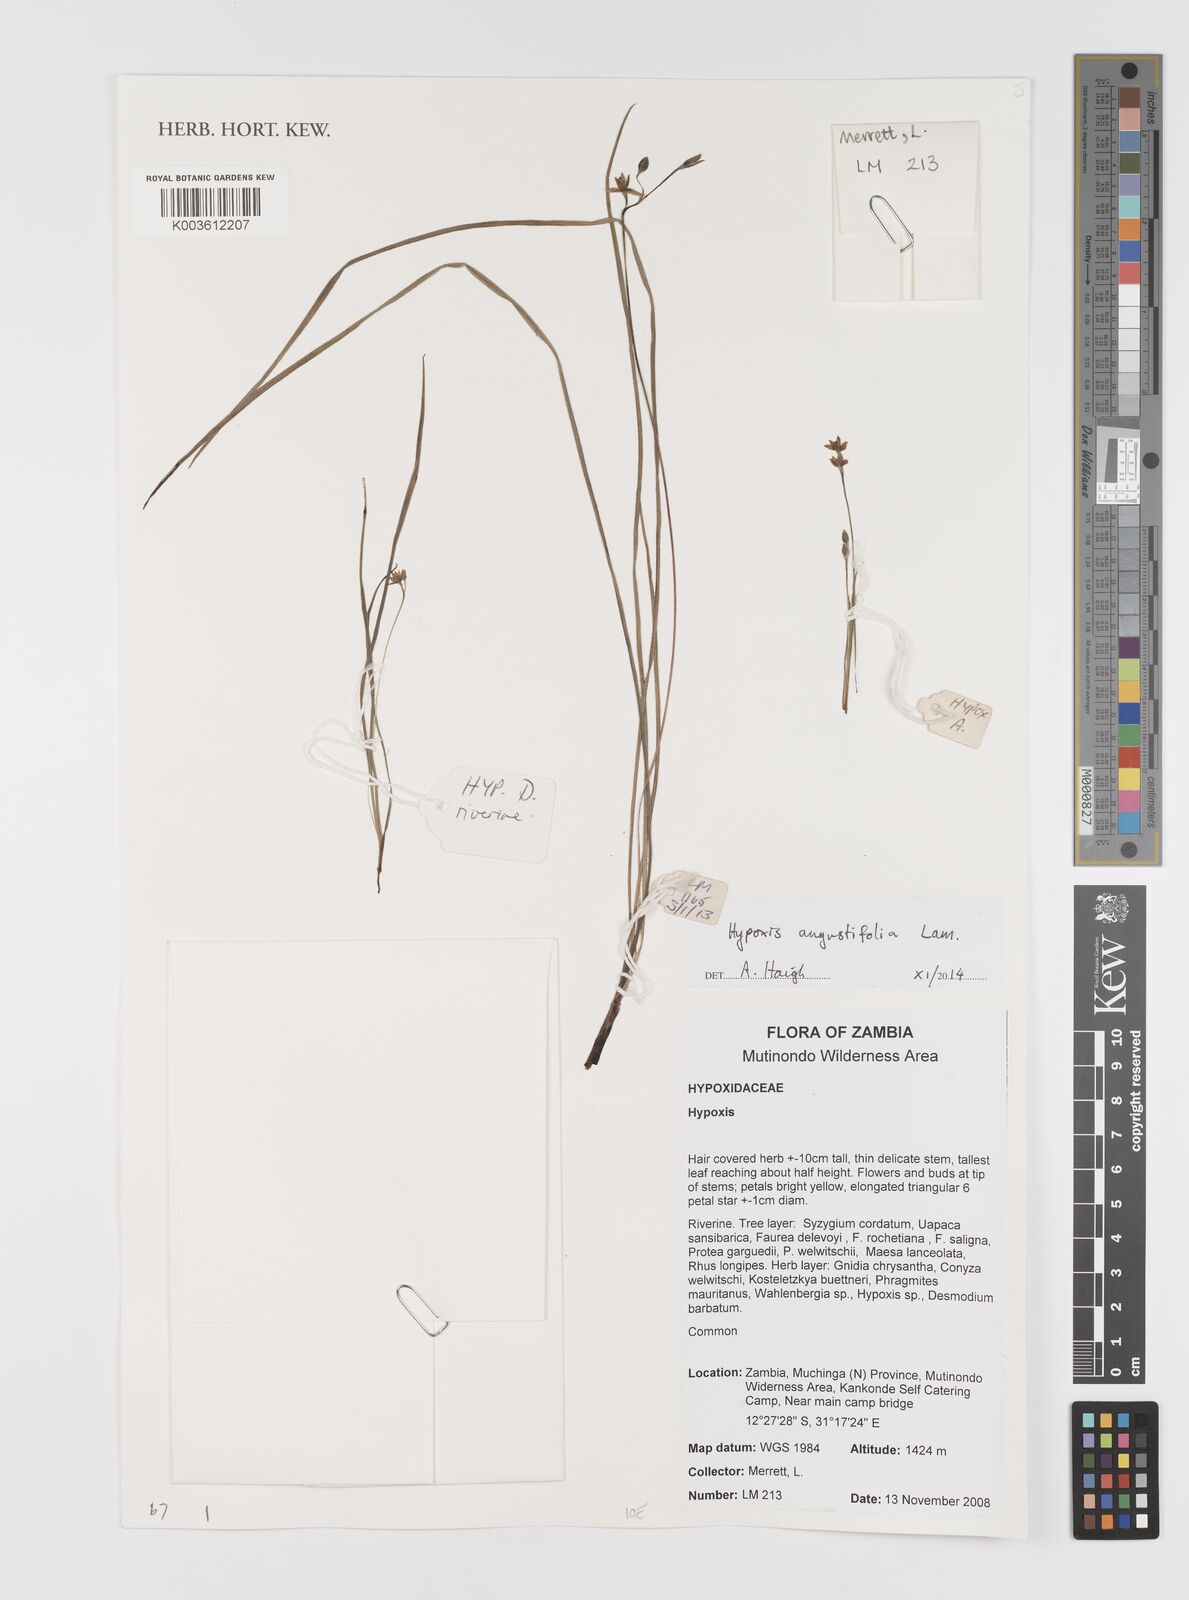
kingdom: Plantae
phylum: Tracheophyta
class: Liliopsida
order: Asparagales
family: Hypoxidaceae
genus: Hypoxis
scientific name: Hypoxis angustifolia
